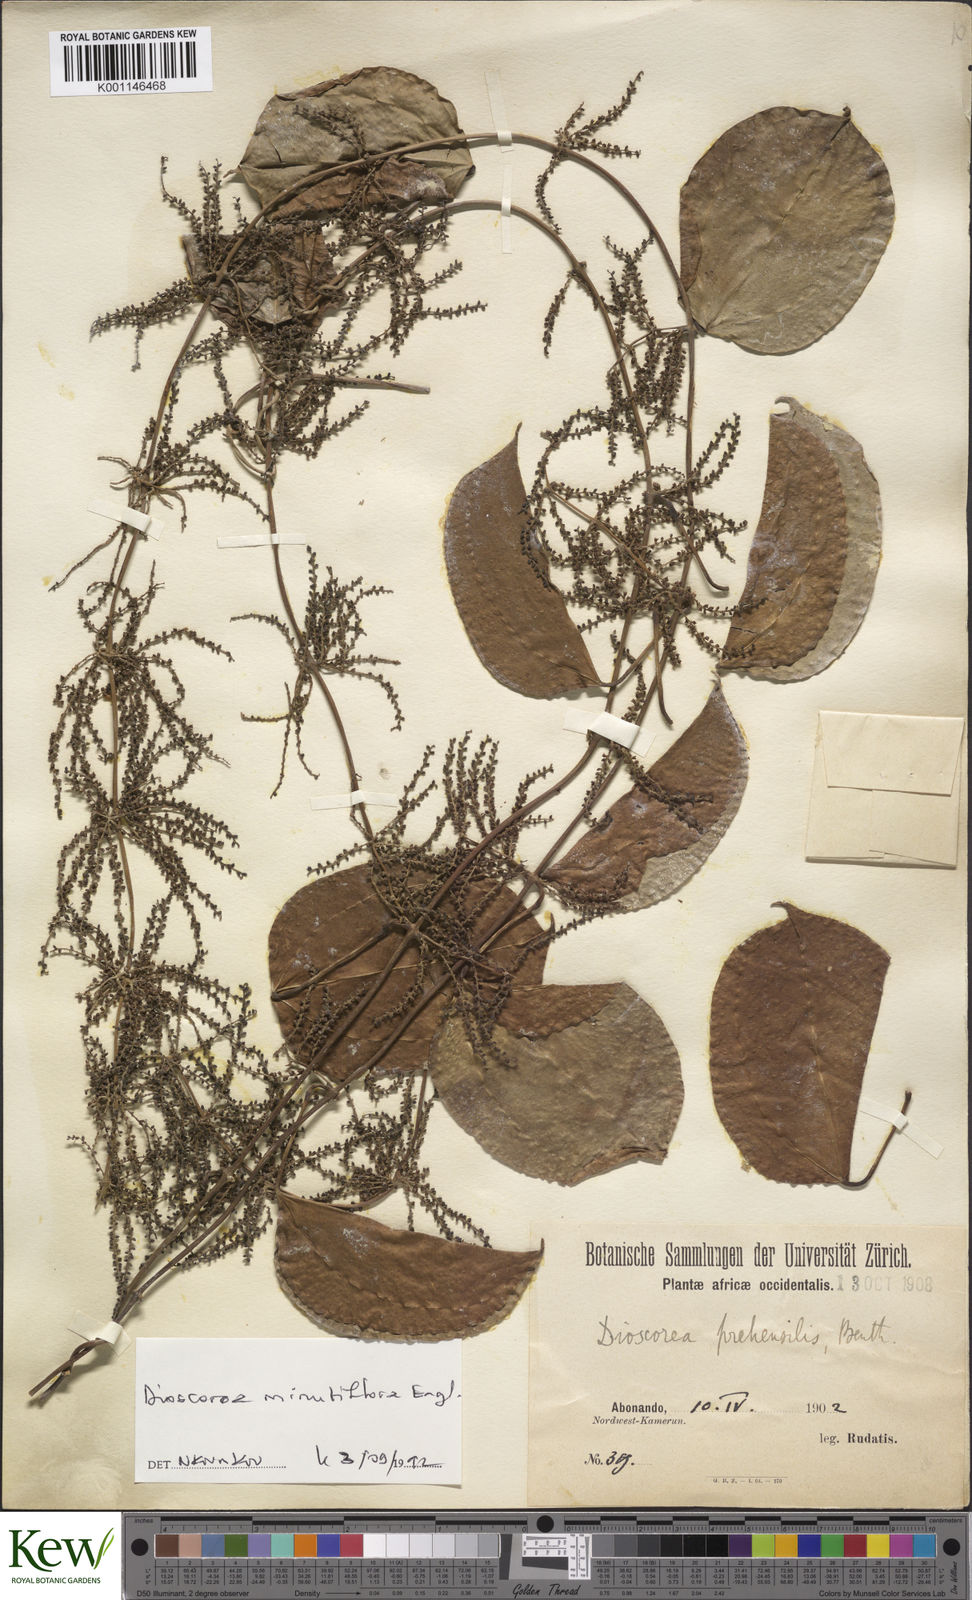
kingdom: Plantae
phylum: Tracheophyta
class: Liliopsida
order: Dioscoreales
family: Dioscoreaceae
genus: Dioscorea
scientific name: Dioscorea minutiflora
